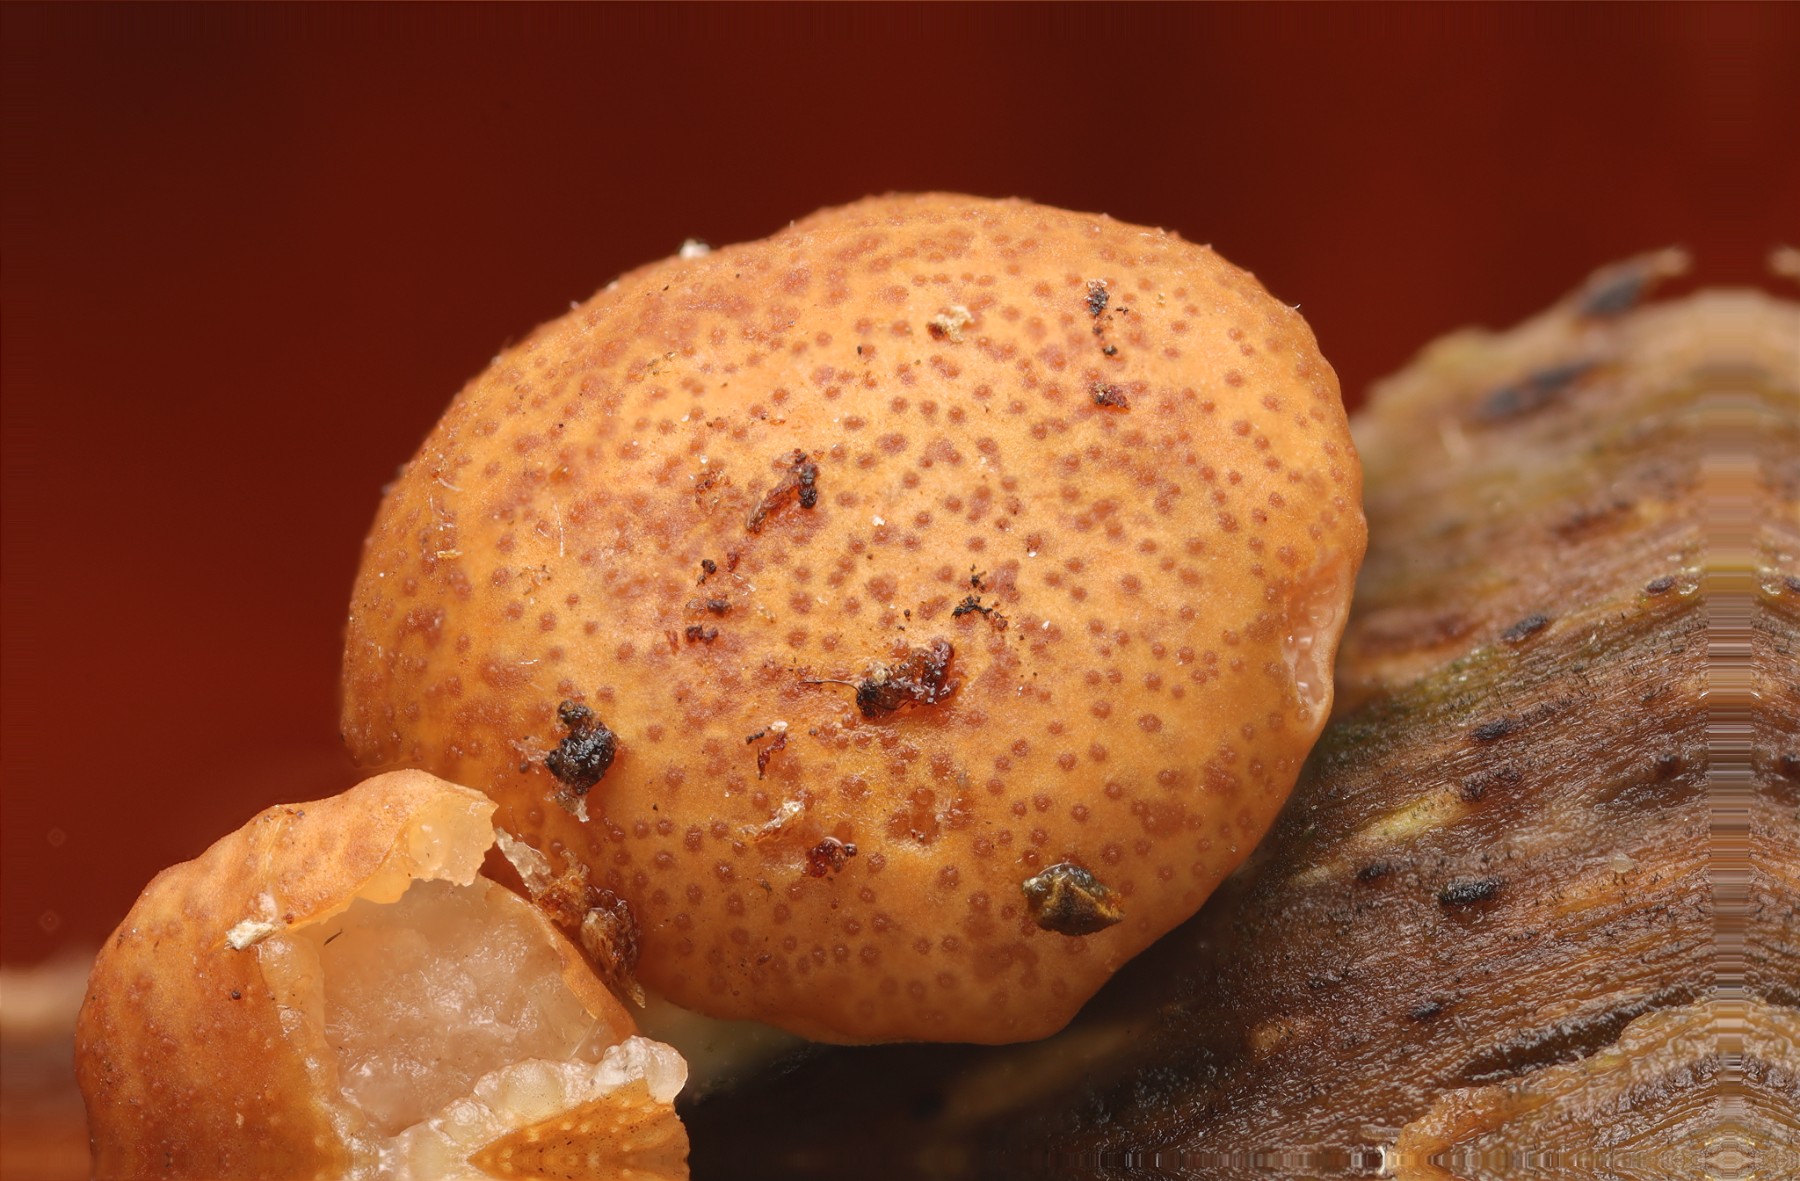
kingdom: Fungi
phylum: Ascomycota
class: Sordariomycetes
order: Hypocreales
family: Hypocreaceae
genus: Trichoderma
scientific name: Trichoderma europaeum
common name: rosabrun kødkerne
